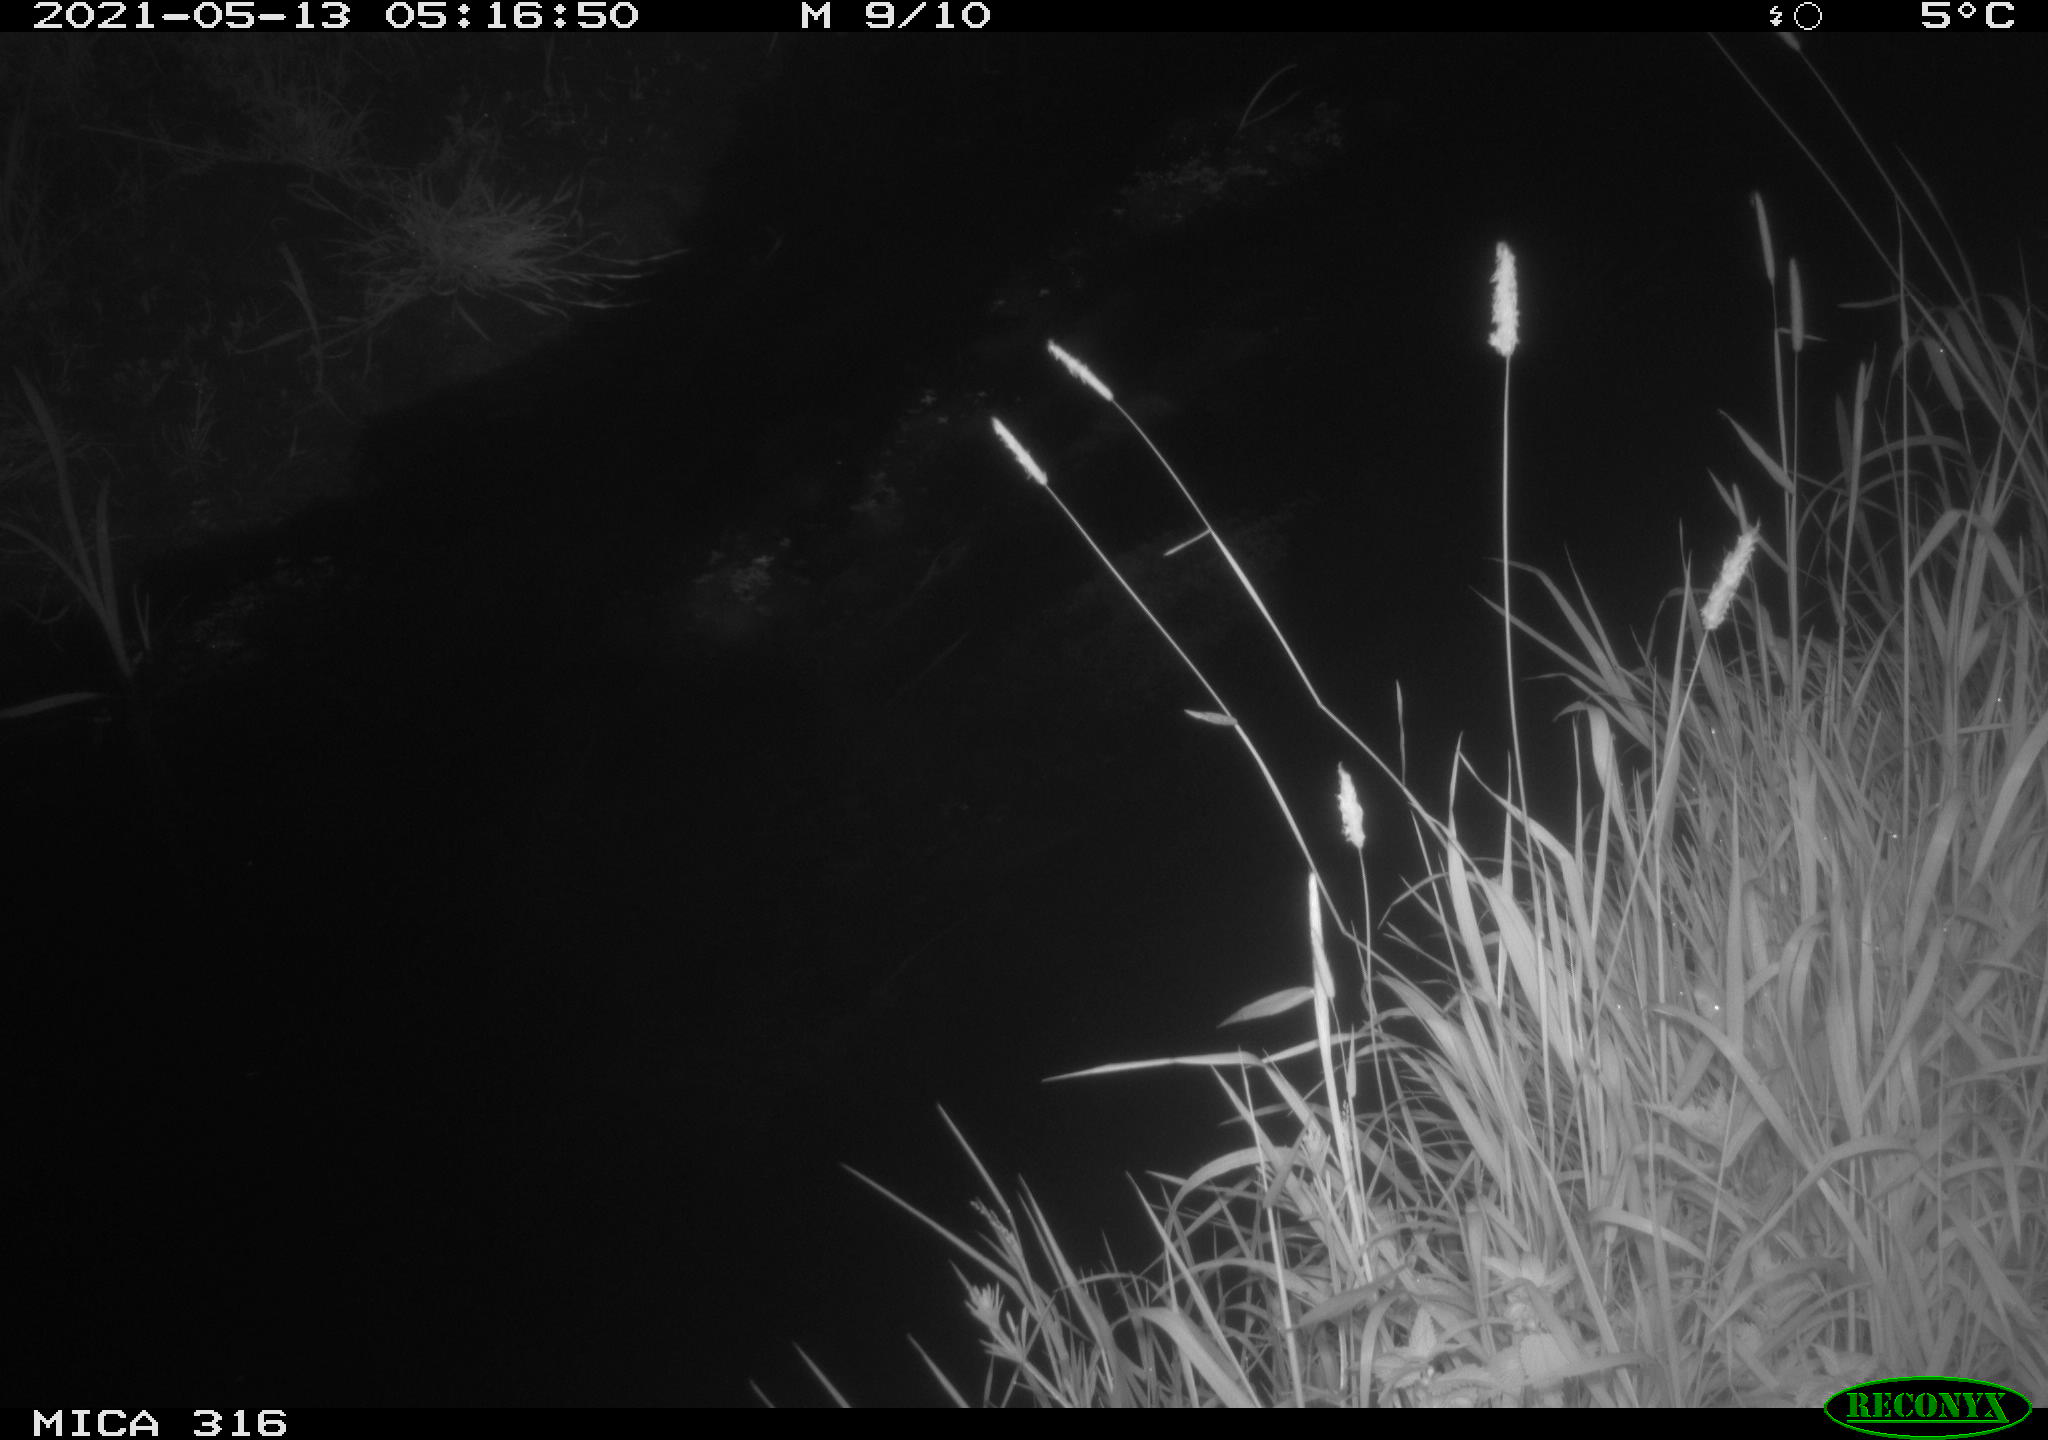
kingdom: Animalia
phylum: Chordata
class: Aves
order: Anseriformes
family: Anatidae
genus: Anas
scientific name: Anas platyrhynchos
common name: Mallard
